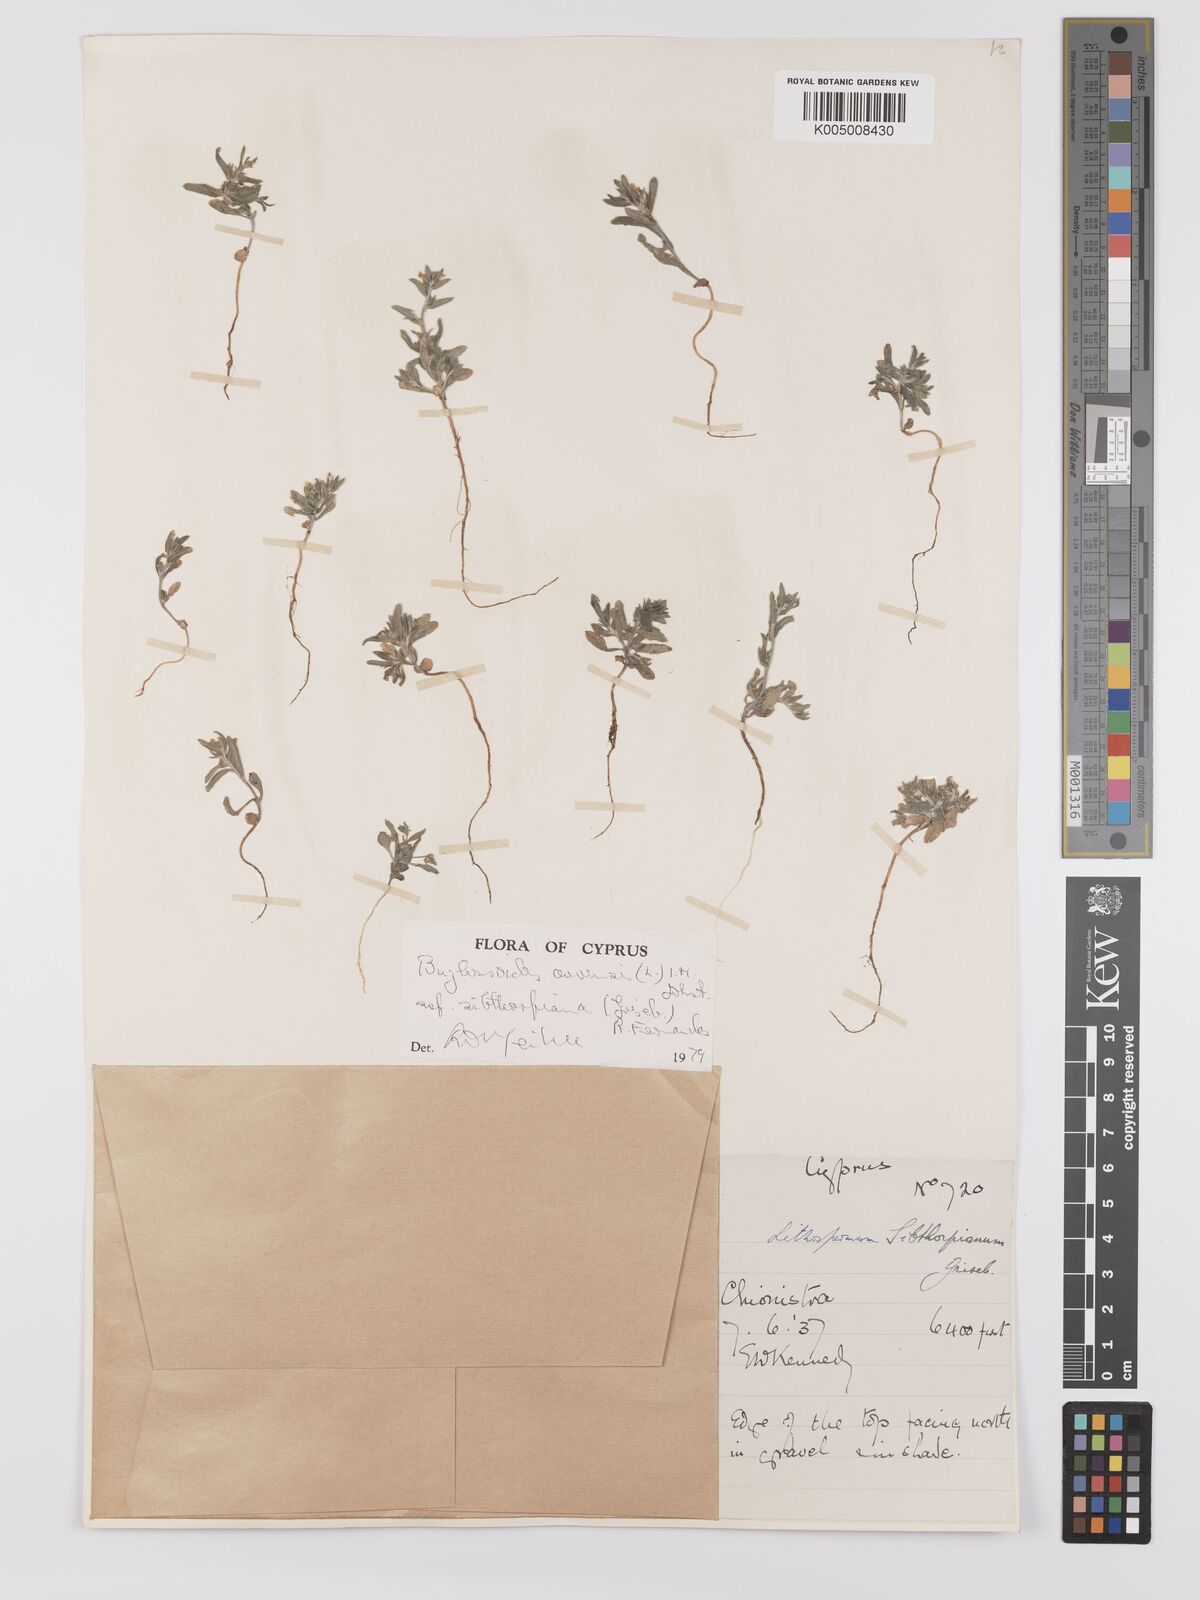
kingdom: Plantae
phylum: Tracheophyta
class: Magnoliopsida
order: Boraginales
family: Boraginaceae
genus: Buglossoides
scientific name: Buglossoides
